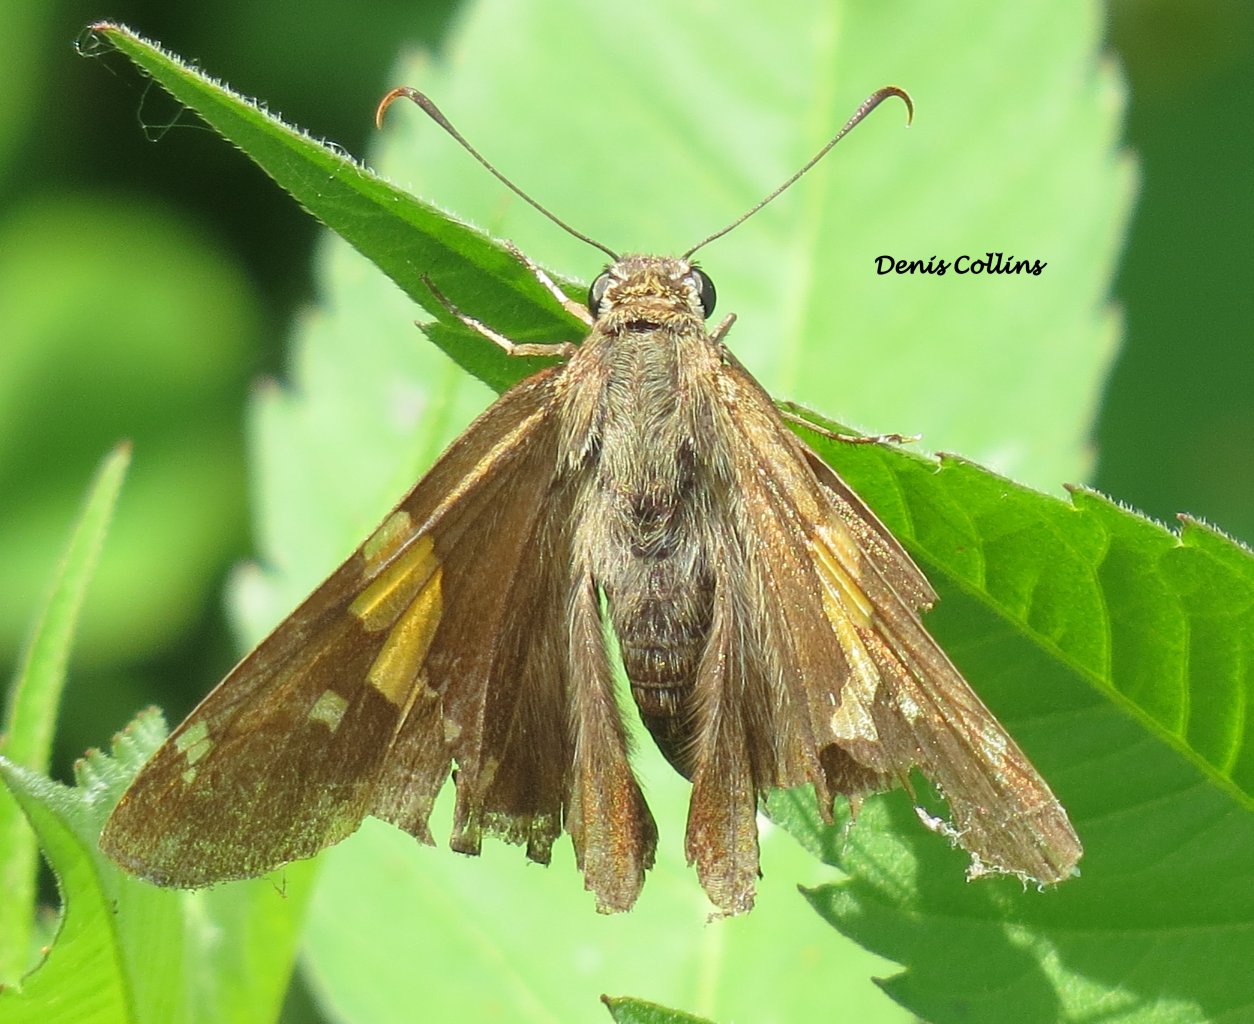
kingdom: Animalia
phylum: Arthropoda
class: Insecta
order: Lepidoptera
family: Hesperiidae
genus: Epargyreus
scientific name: Epargyreus clarus
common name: Silver-spotted Skipper
